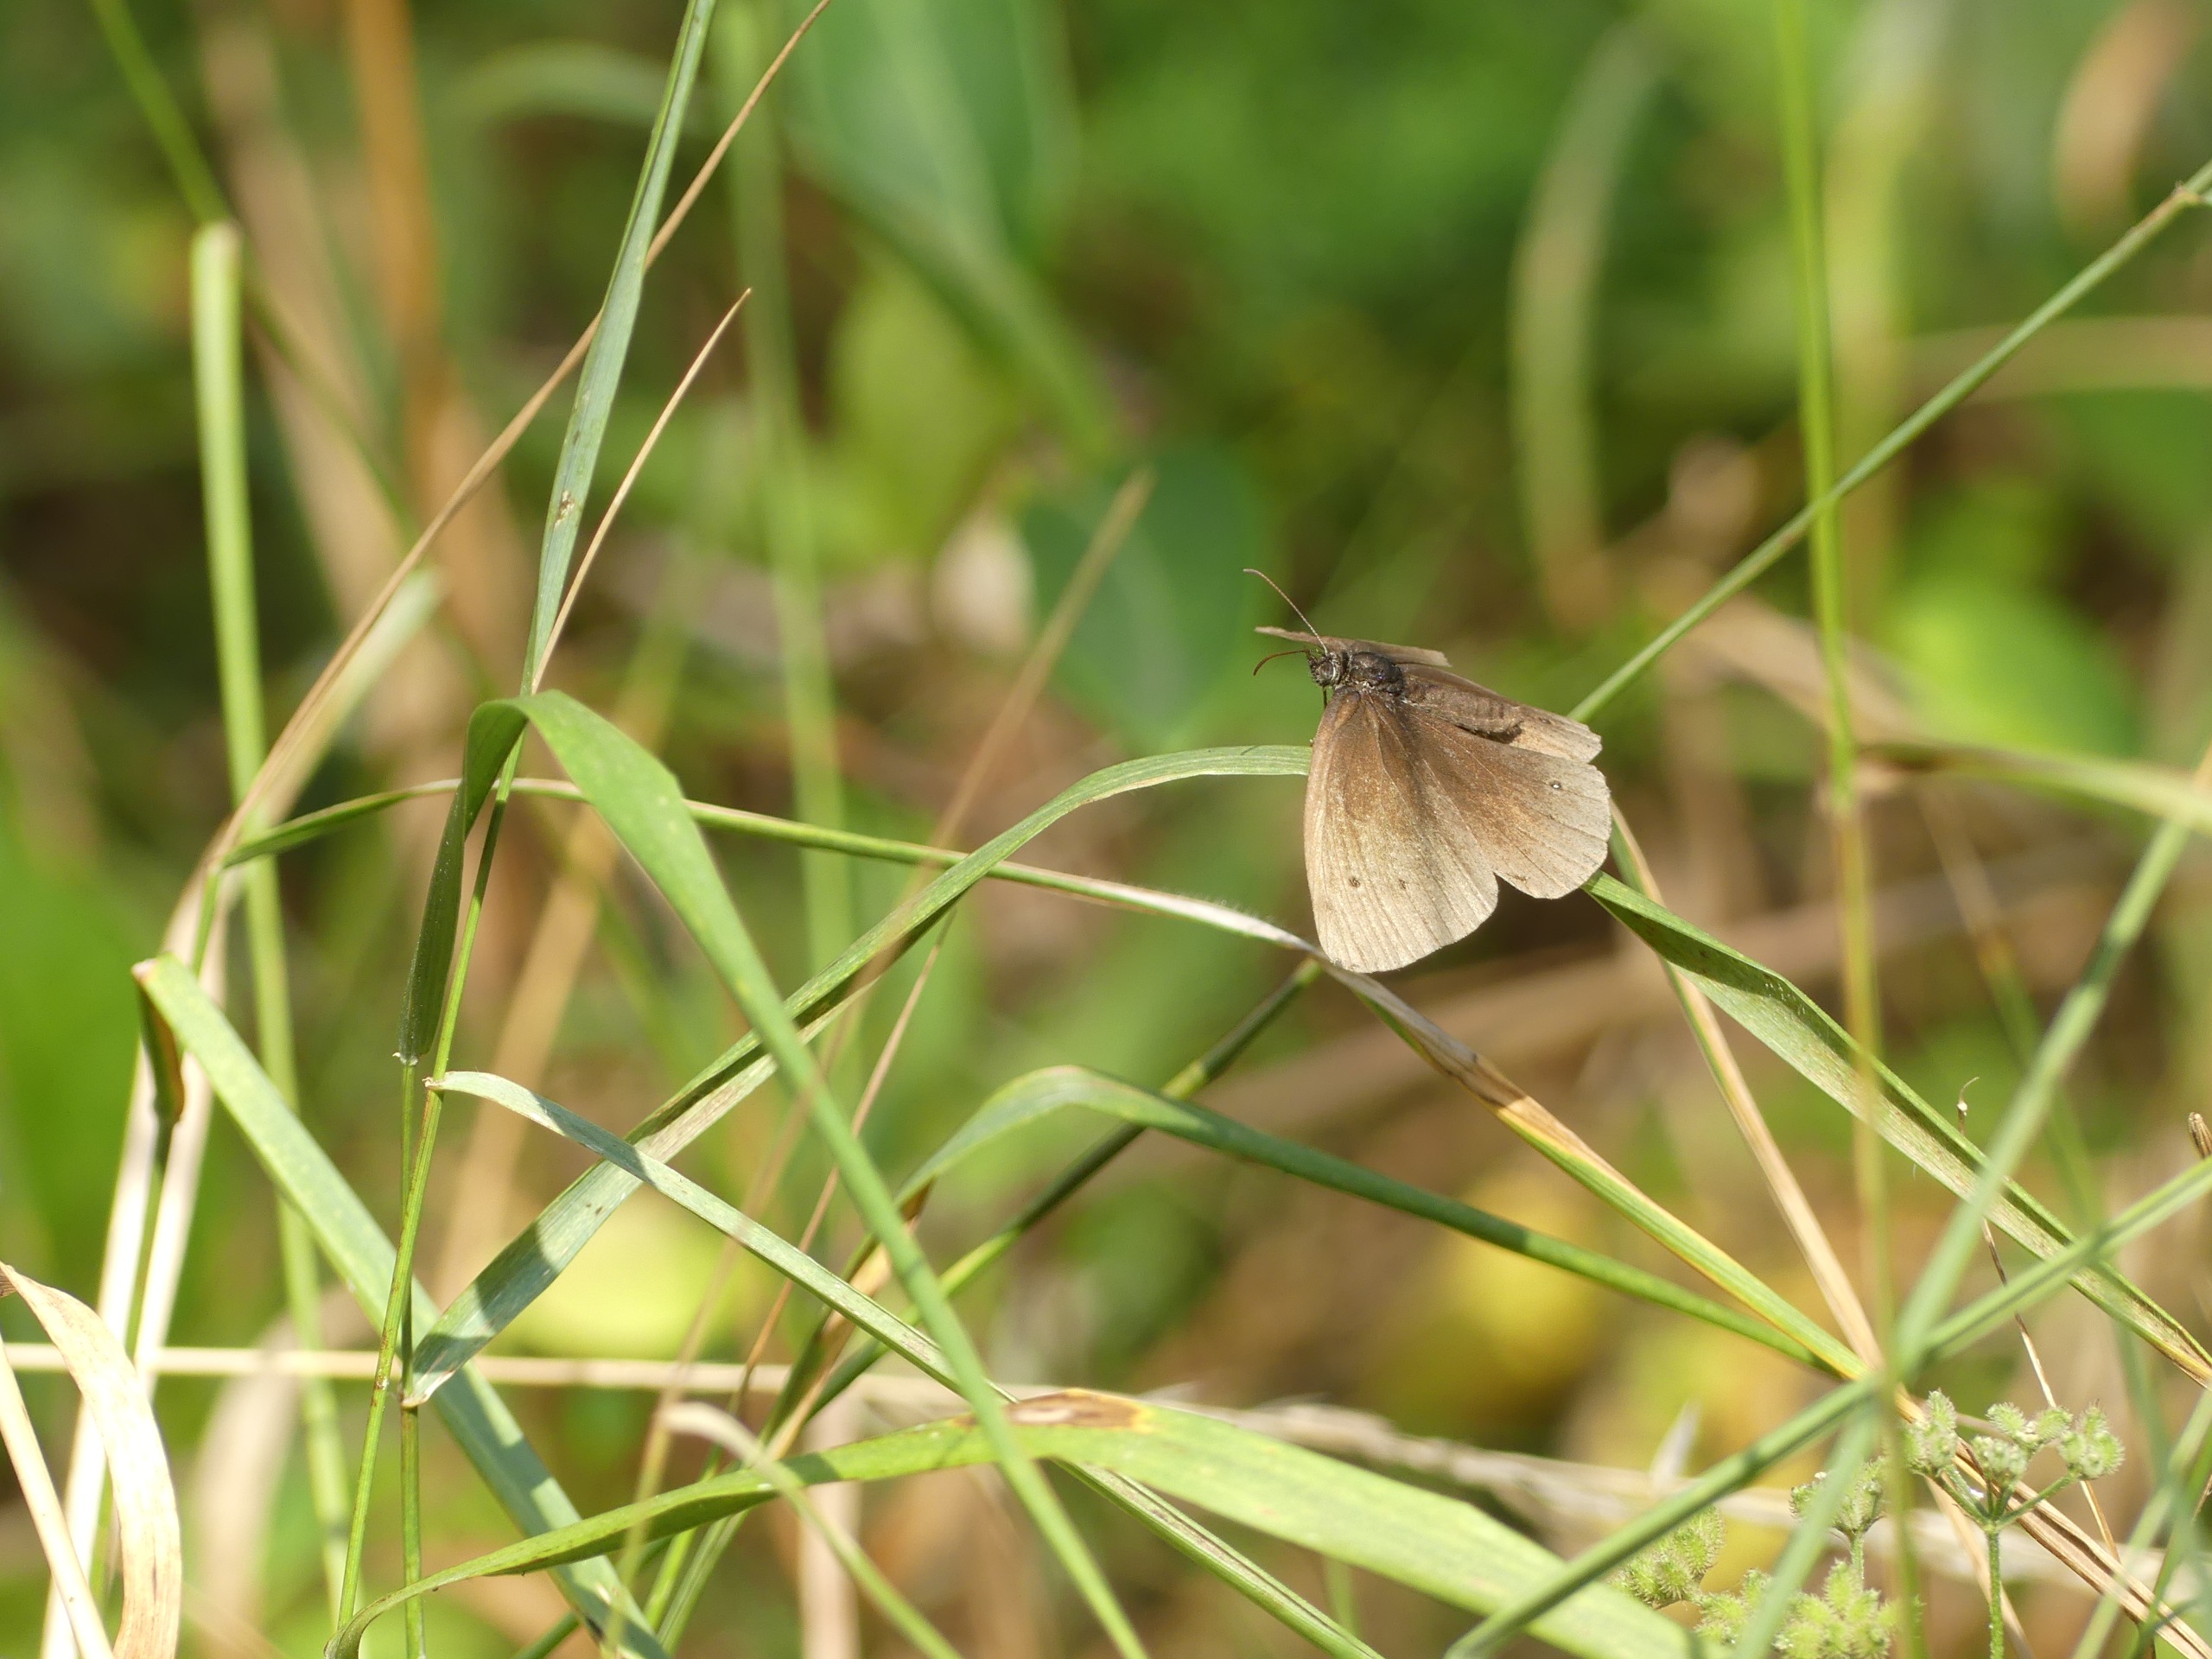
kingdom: Animalia
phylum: Arthropoda
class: Insecta
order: Lepidoptera
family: Nymphalidae
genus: Aphantopus
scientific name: Aphantopus hyperantus
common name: Engrandøje
